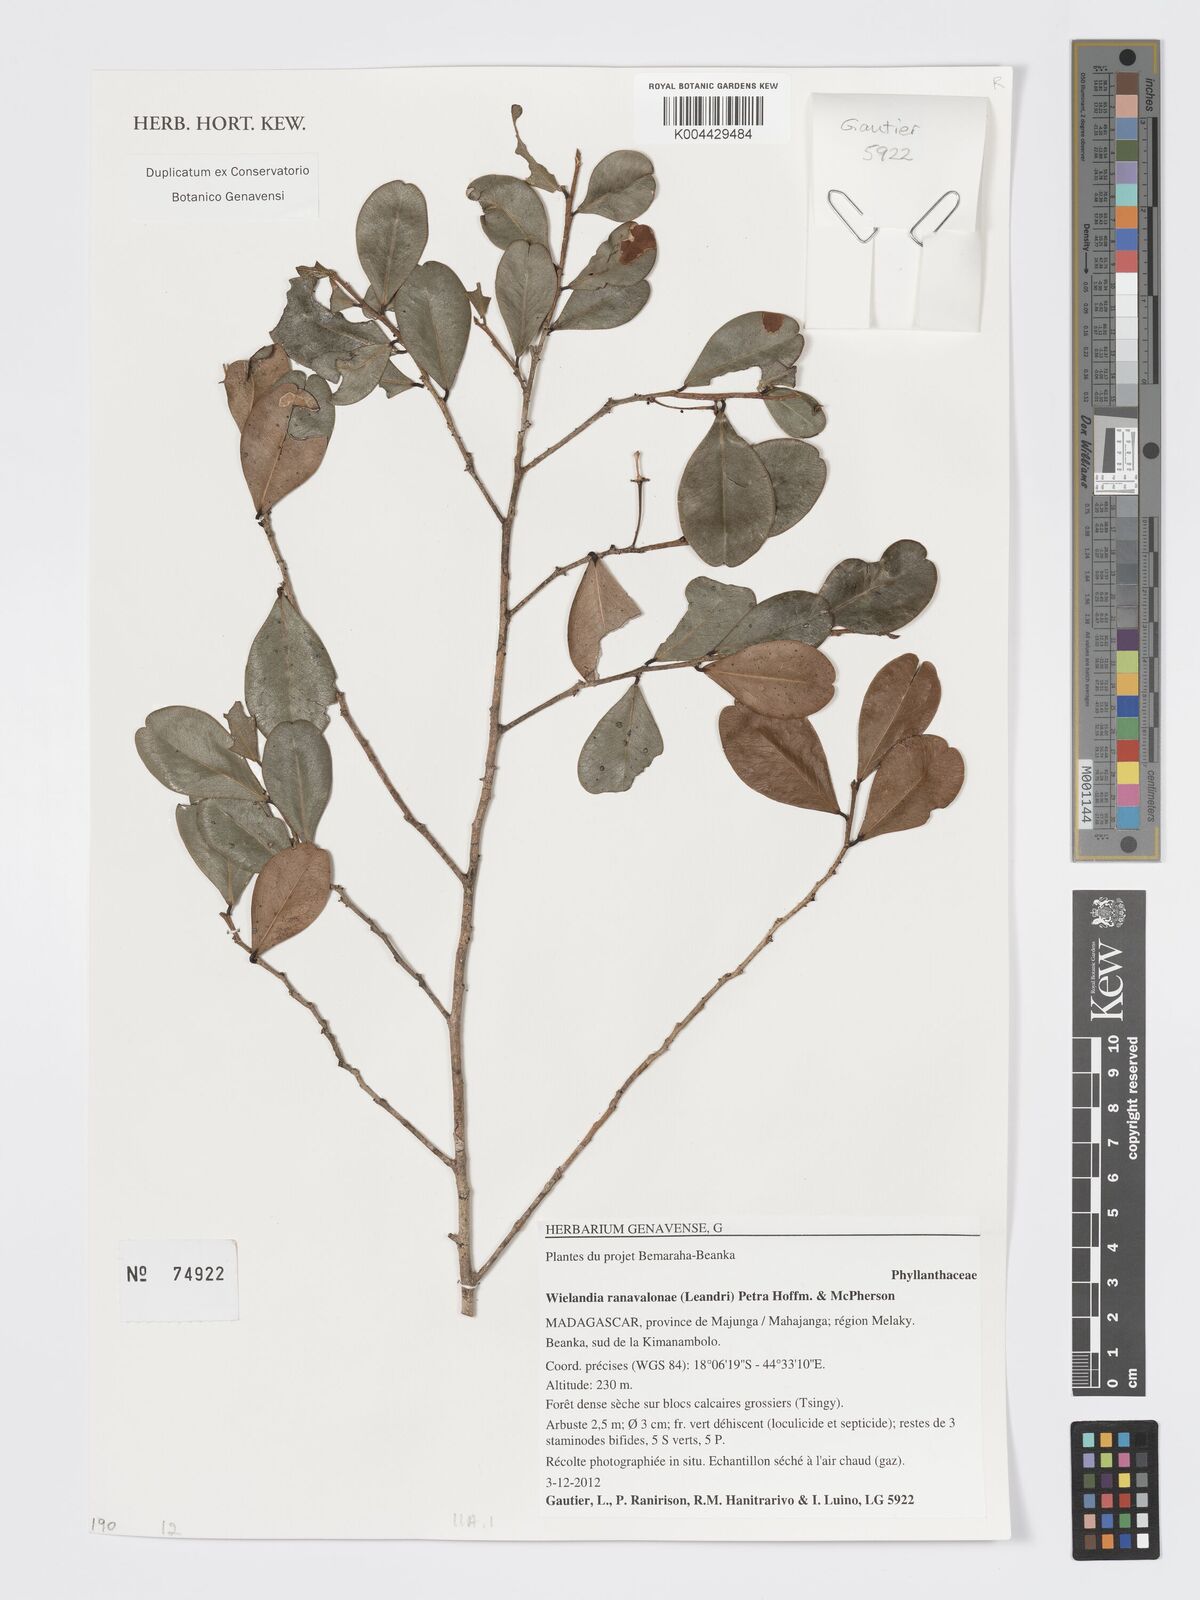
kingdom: Plantae
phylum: Tracheophyta
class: Magnoliopsida
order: Malpighiales
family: Phyllanthaceae
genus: Wielandia
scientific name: Wielandia ranavalonae
